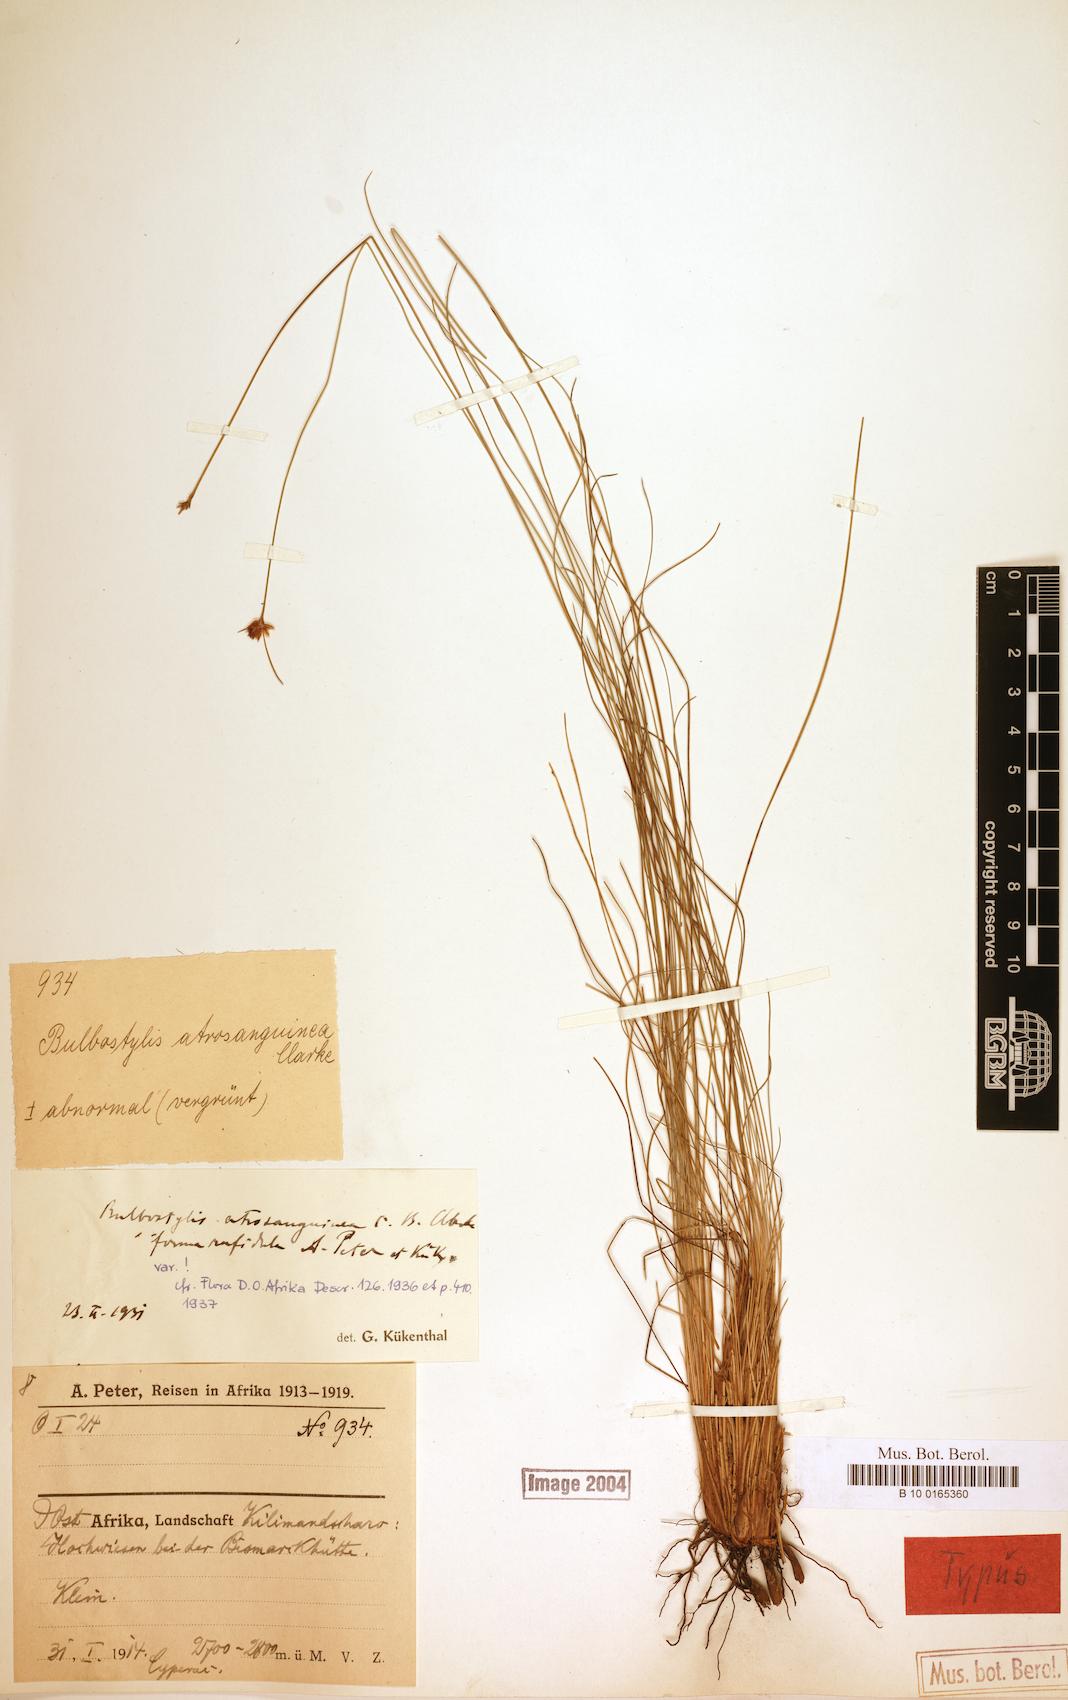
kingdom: Plantae
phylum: Tracheophyta
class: Liliopsida
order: Poales
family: Cyperaceae
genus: Bulbostylis
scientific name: Bulbostylis atrosanguinea
